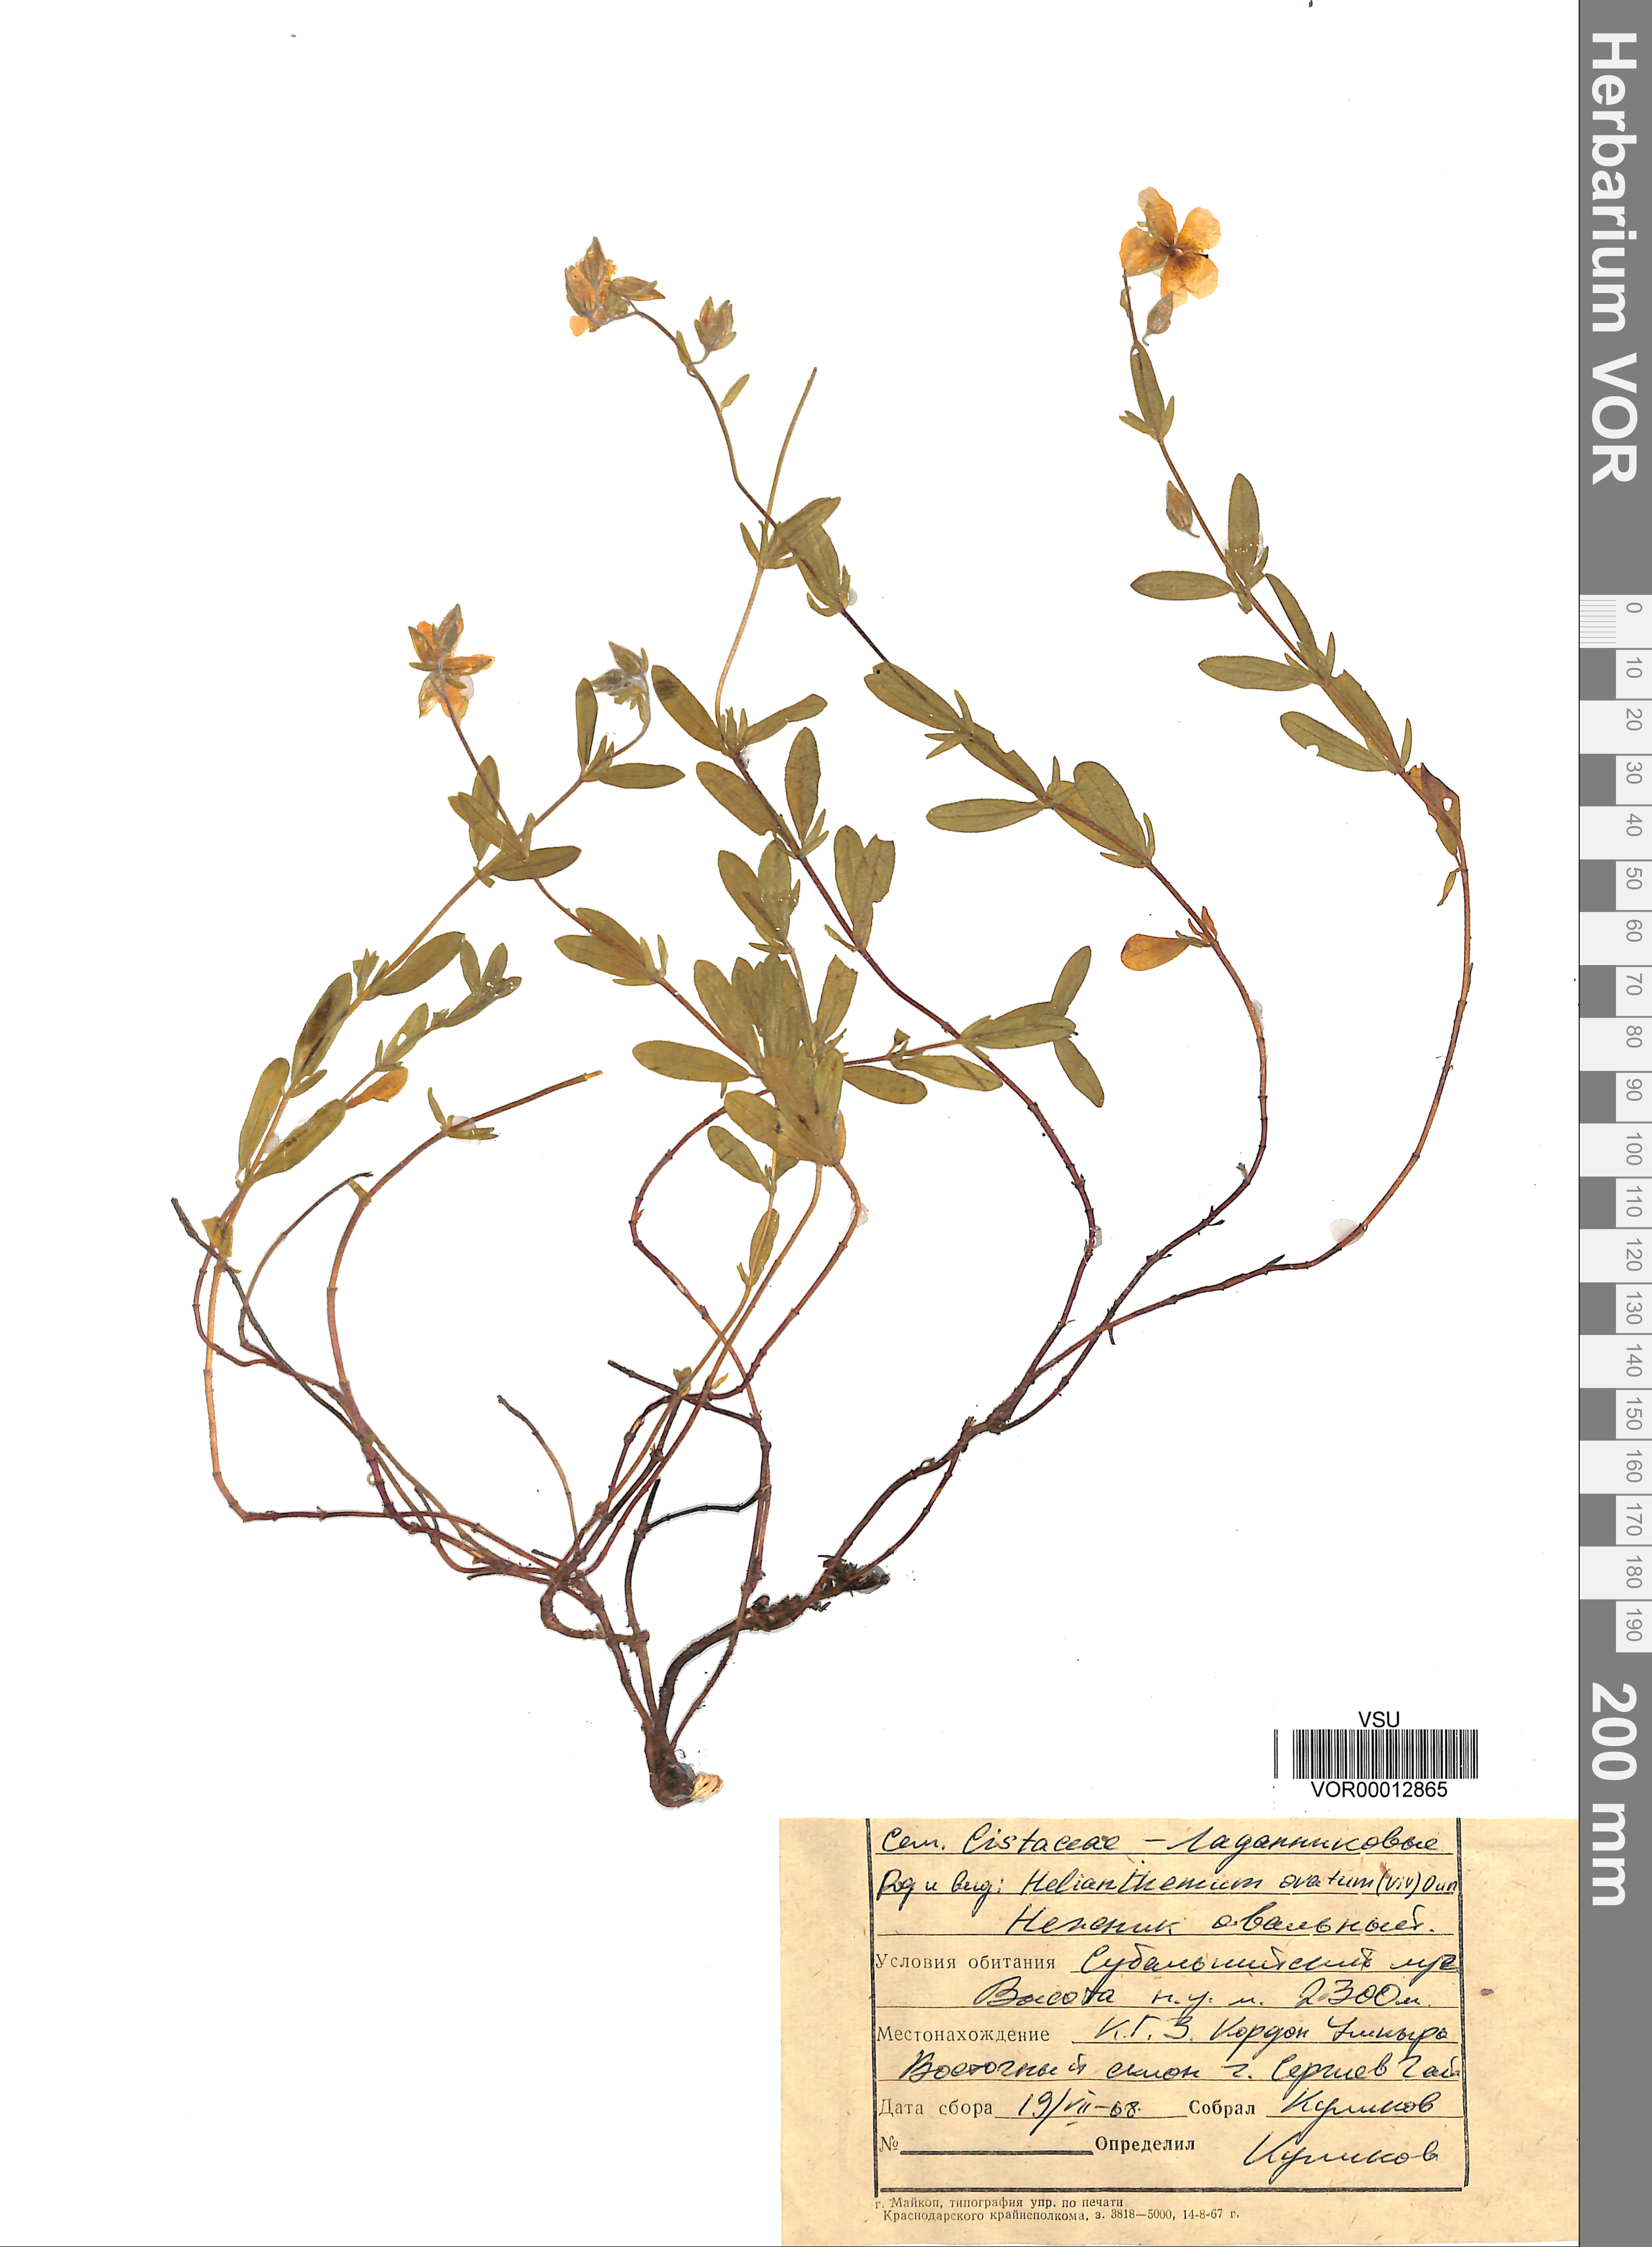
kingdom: Plantae
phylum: Tracheophyta
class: Magnoliopsida
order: Malvales
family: Cistaceae
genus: Helianthemum
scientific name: Helianthemum nummularium
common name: Common rock-rose
